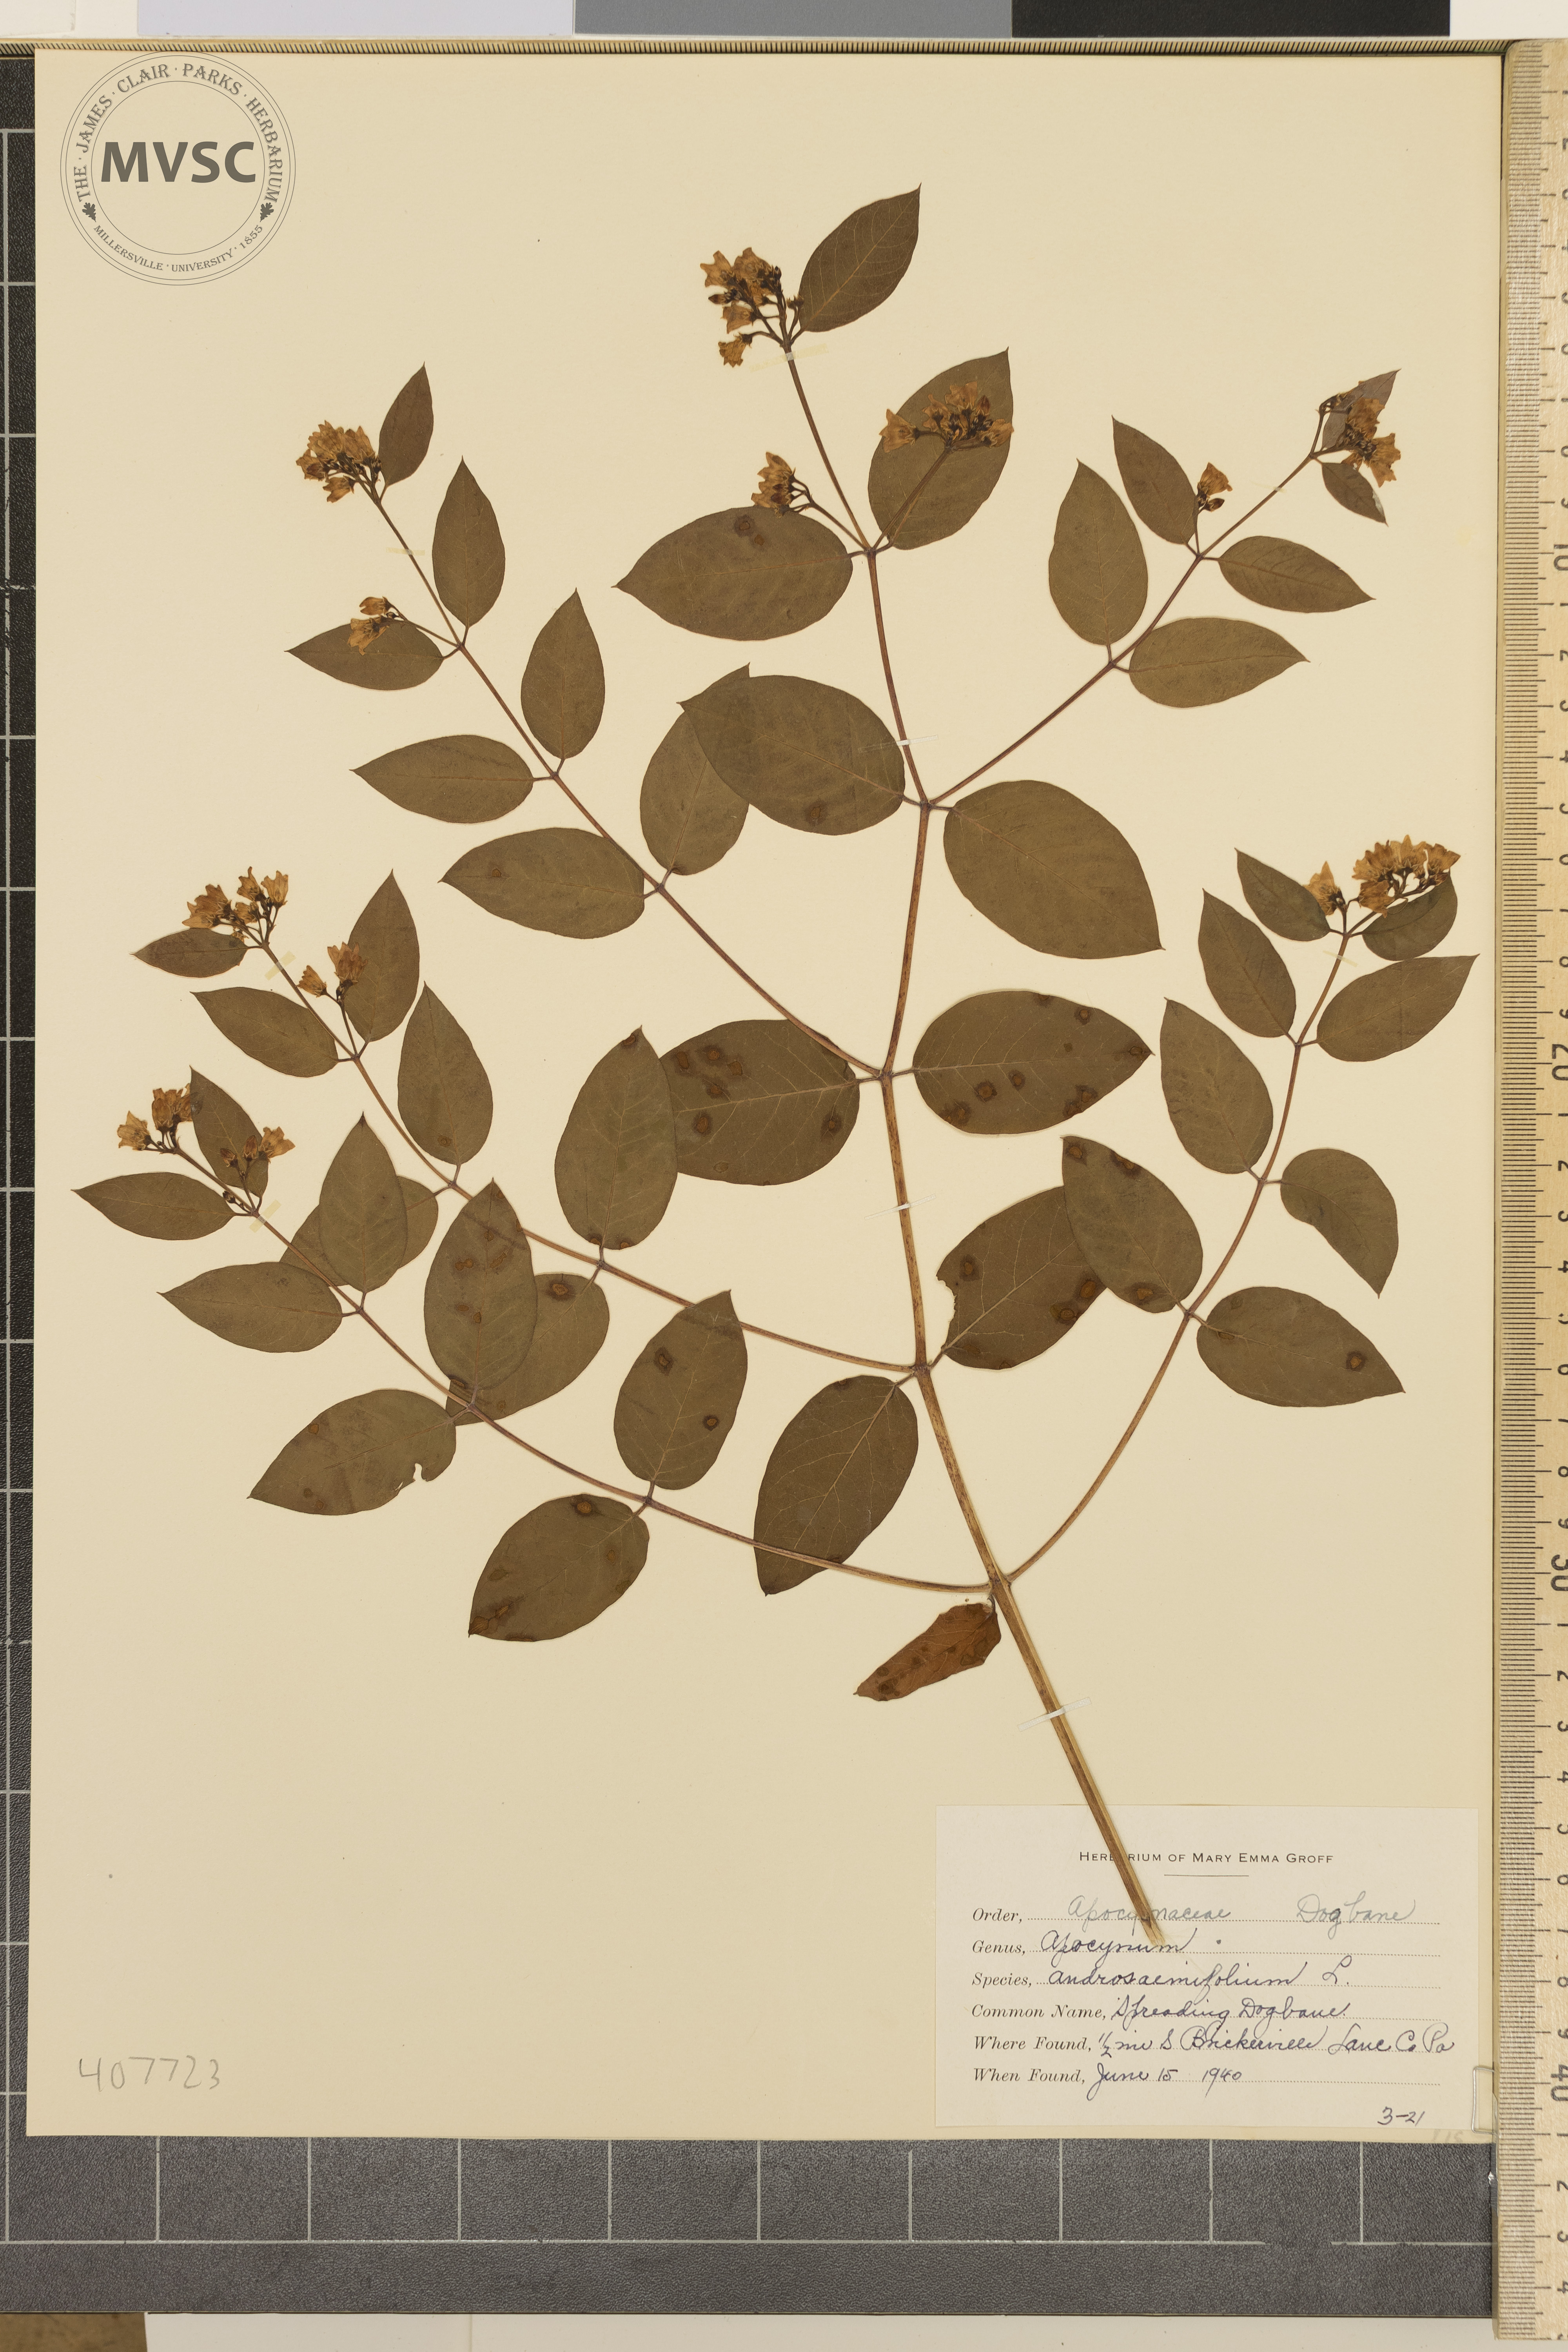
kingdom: Plantae
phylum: Tracheophyta
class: Magnoliopsida
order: Gentianales
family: Apocynaceae
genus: Apocynum
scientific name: Apocynum androsaemifolium
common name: Spreading Dogbane
